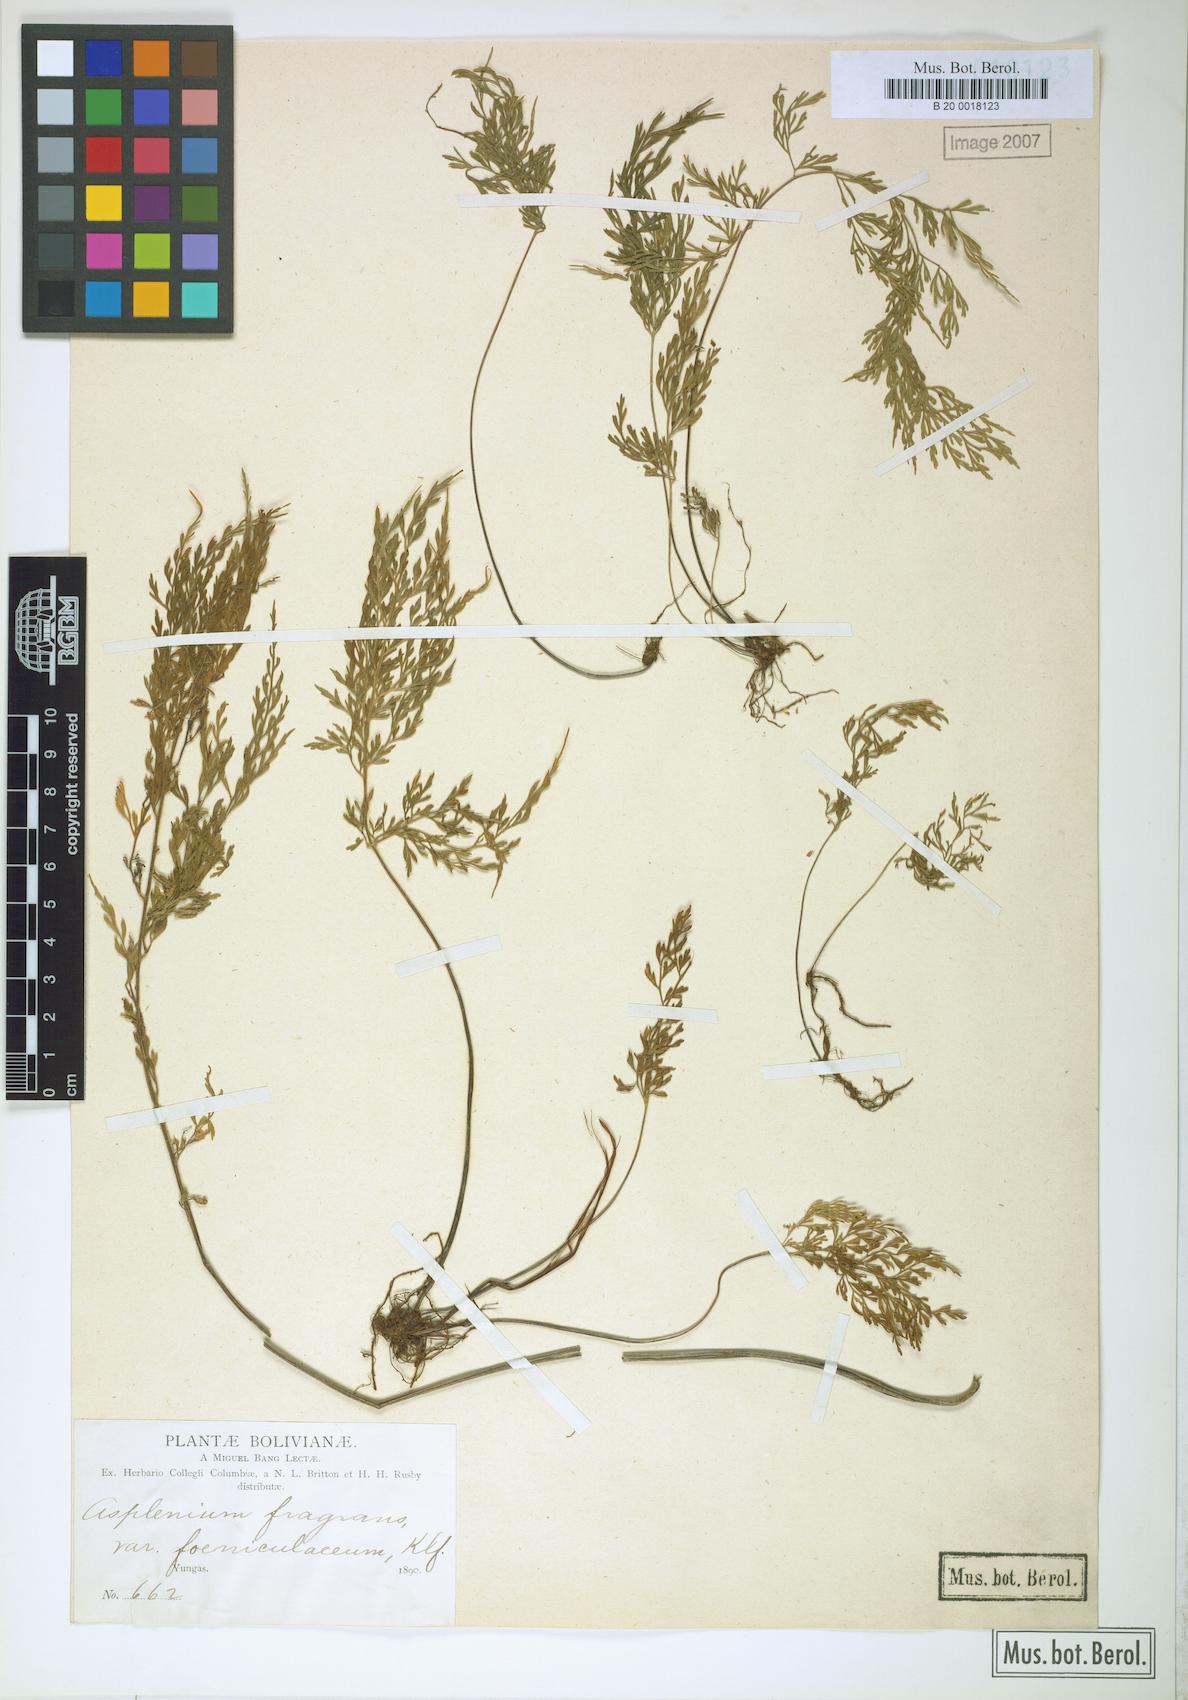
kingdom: Plantae
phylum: Tracheophyta
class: Polypodiopsida
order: Polypodiales
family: Aspleniaceae
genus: Asplenium
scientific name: Asplenium millefolium
